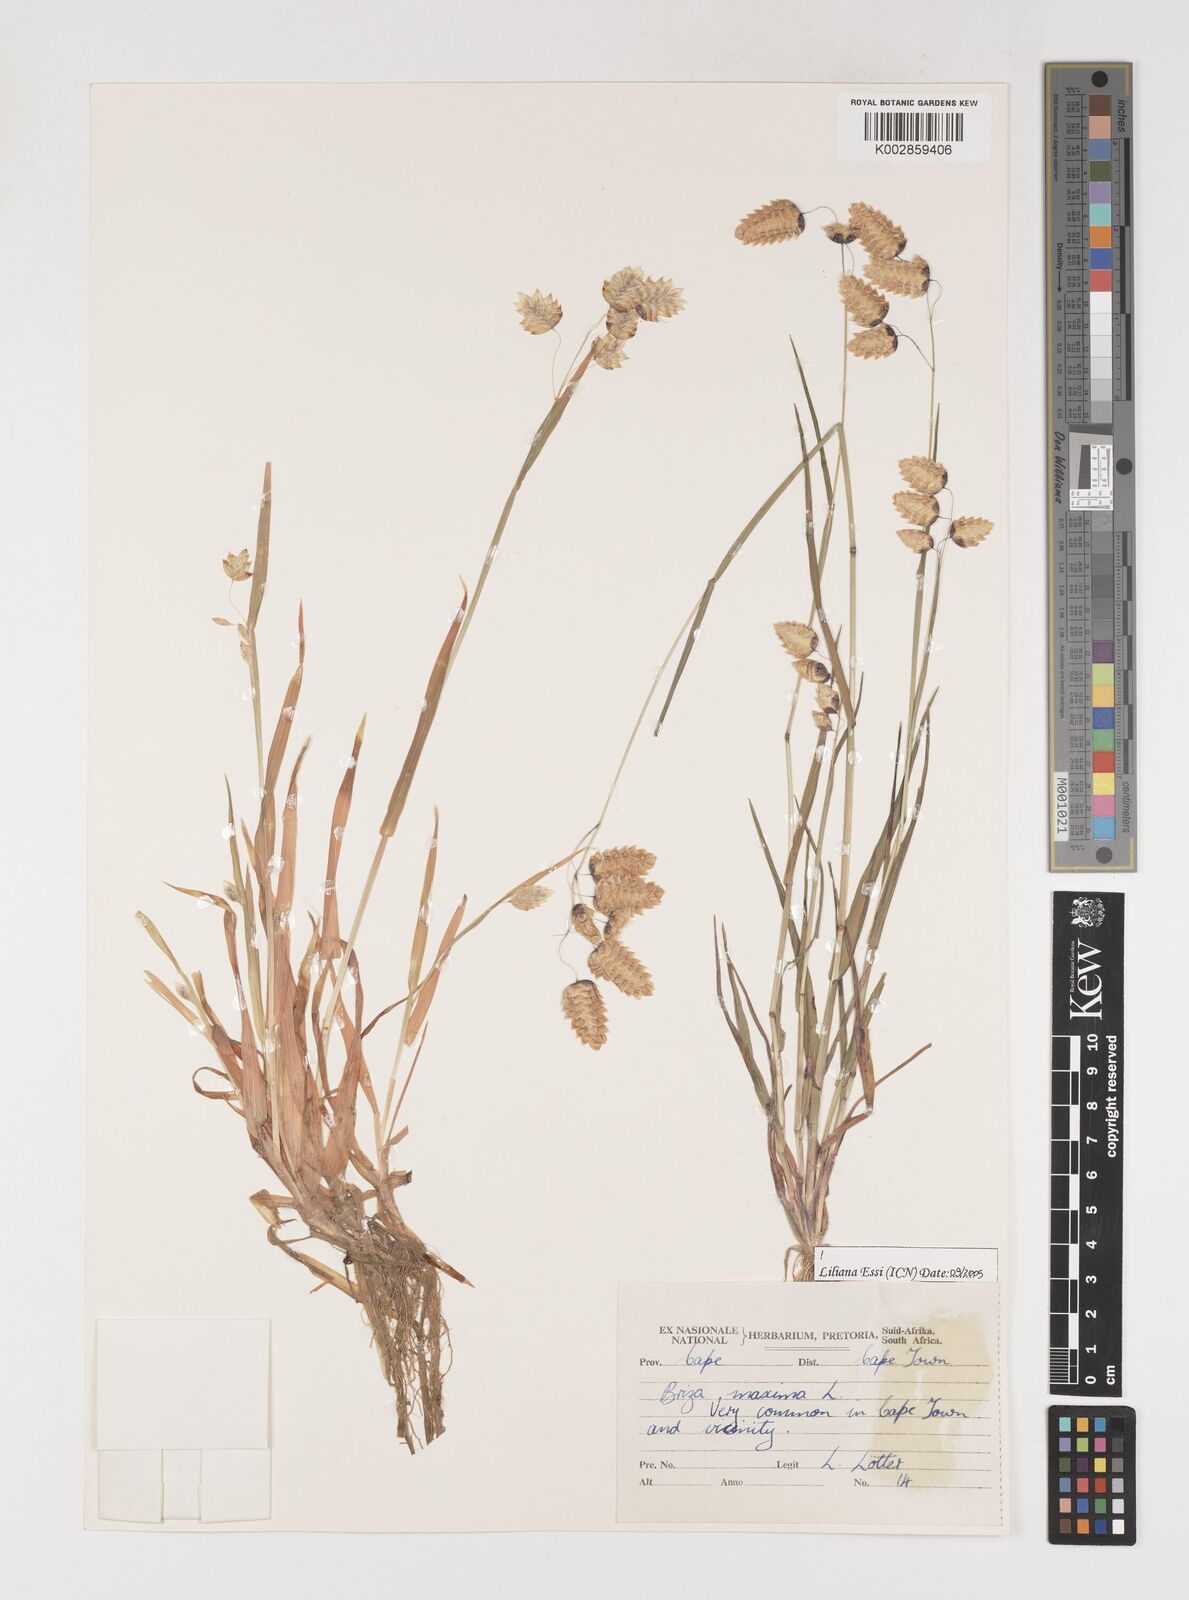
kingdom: Plantae
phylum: Tracheophyta
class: Liliopsida
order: Poales
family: Poaceae
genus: Briza
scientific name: Briza maxima
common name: Big quakinggrass
